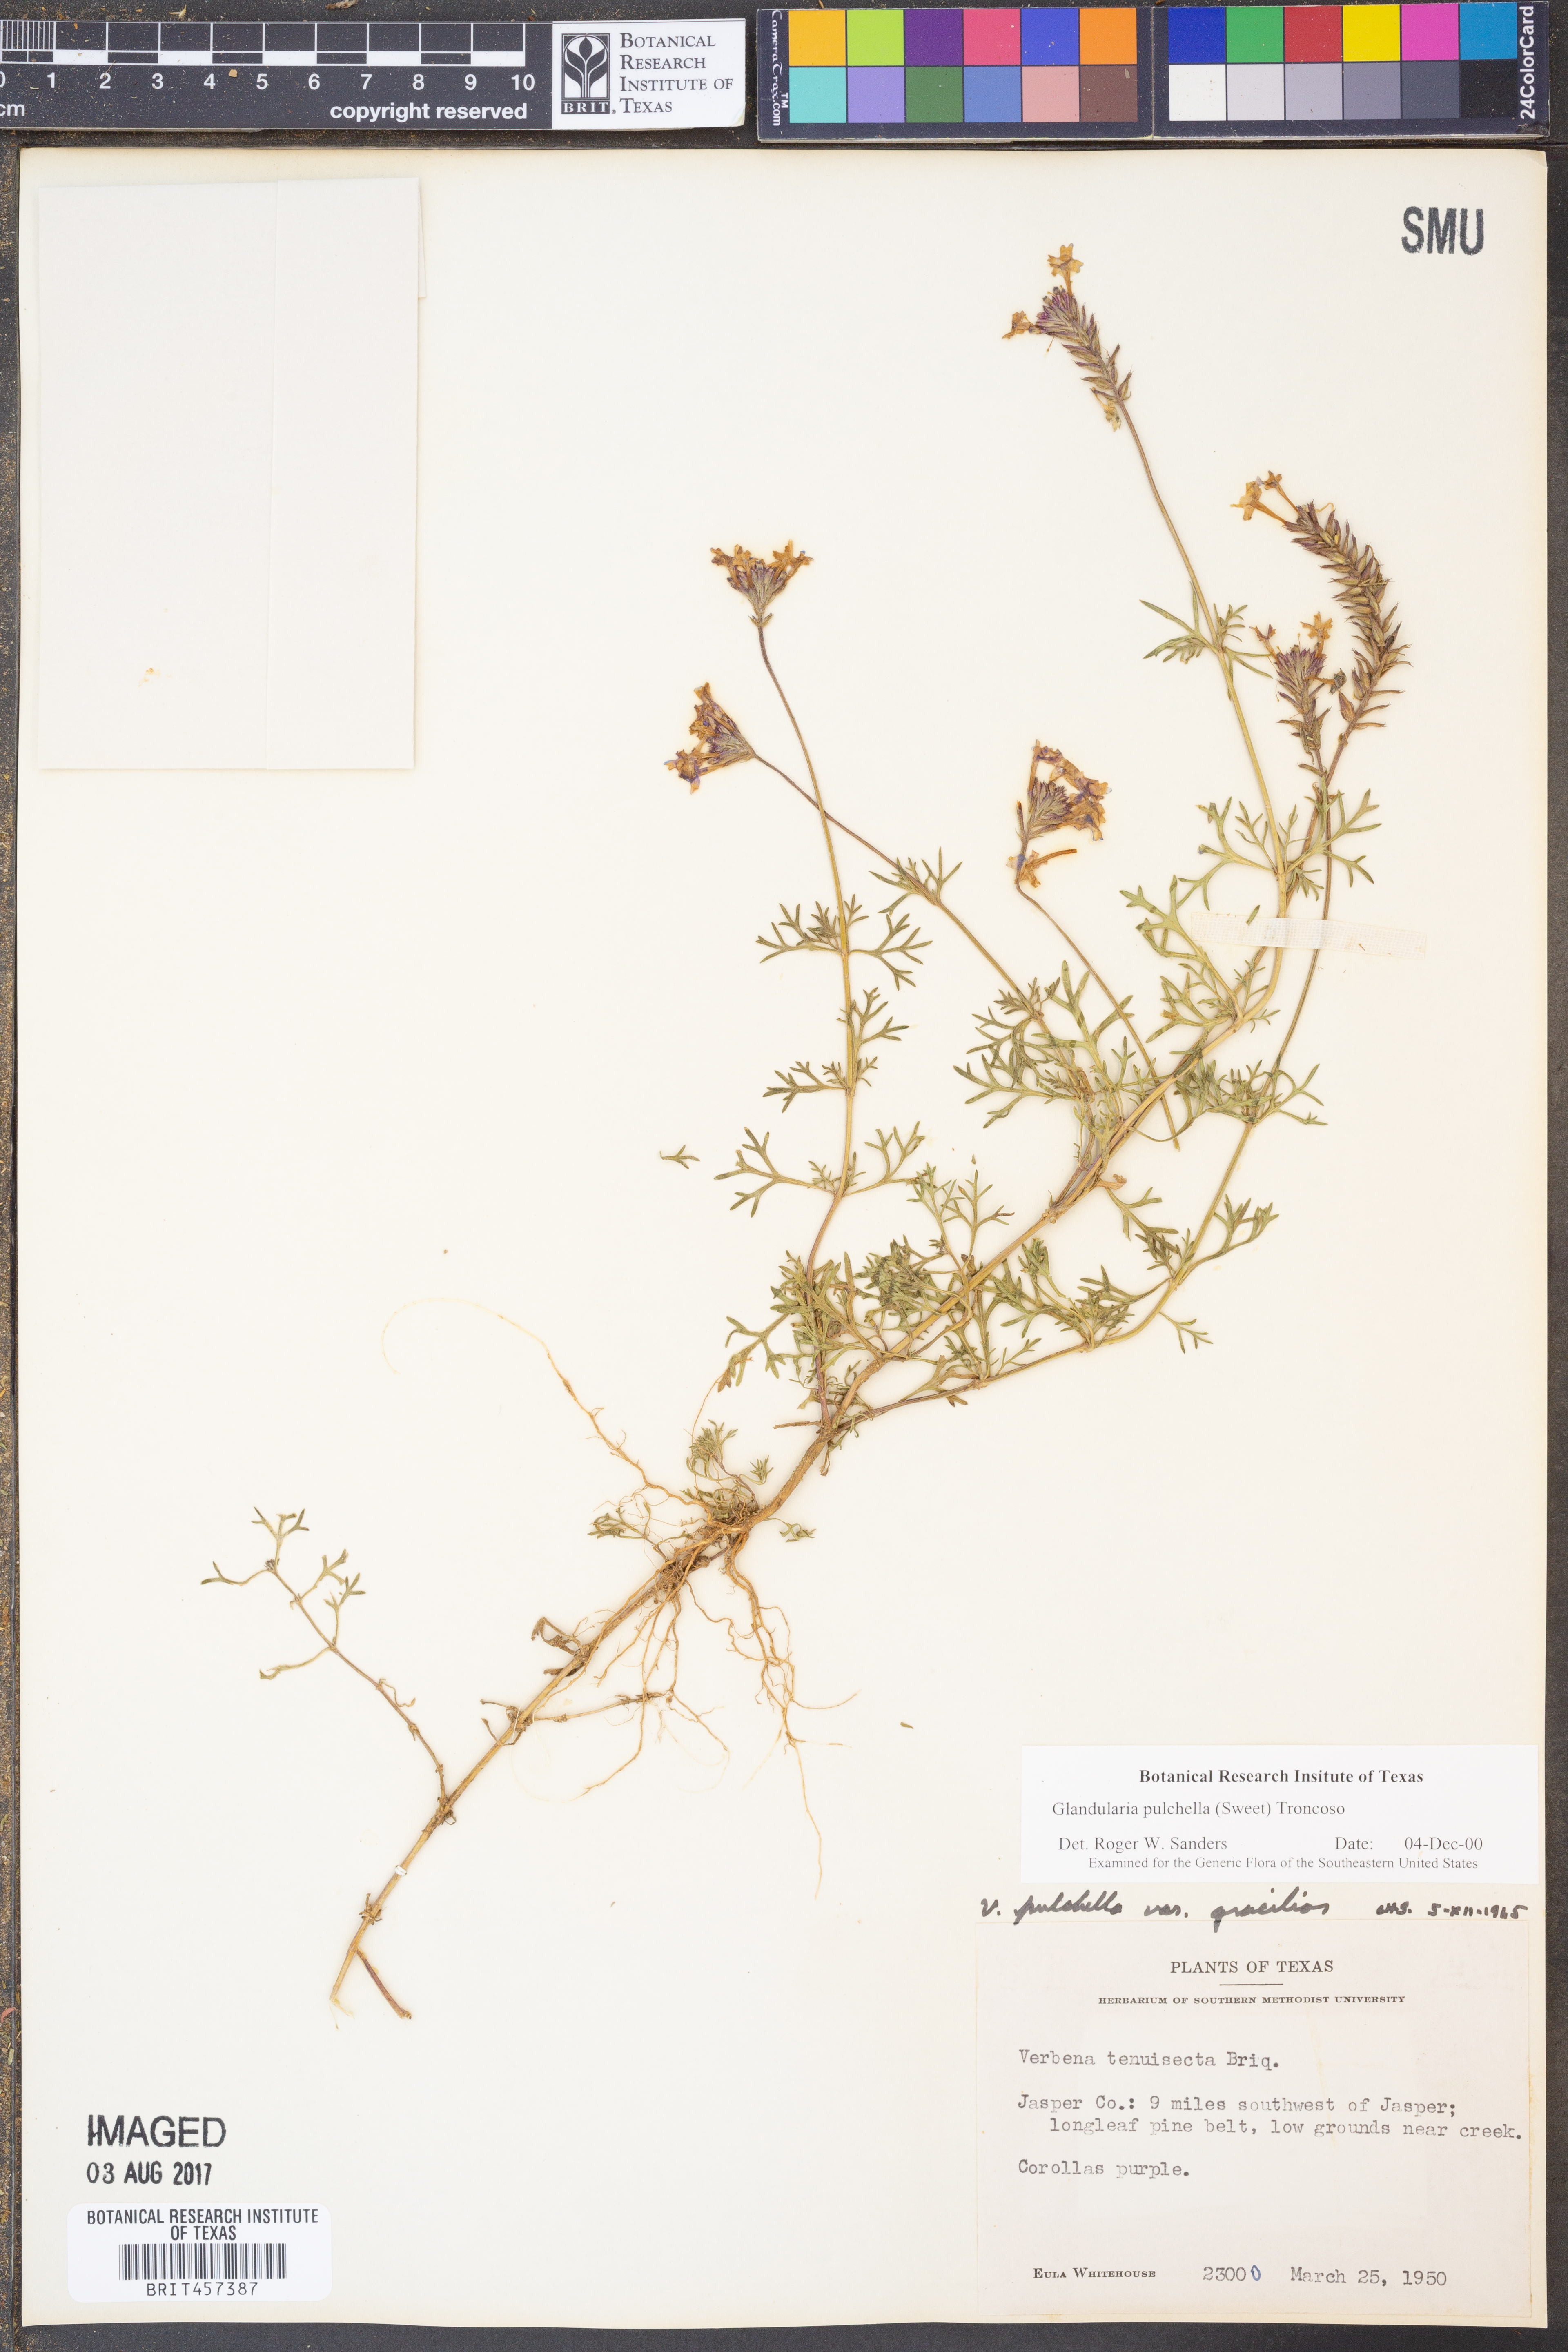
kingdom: Plantae
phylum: Tracheophyta
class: Magnoliopsida
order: Lamiales
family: Verbenaceae
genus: Verbena
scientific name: Verbena tenera
